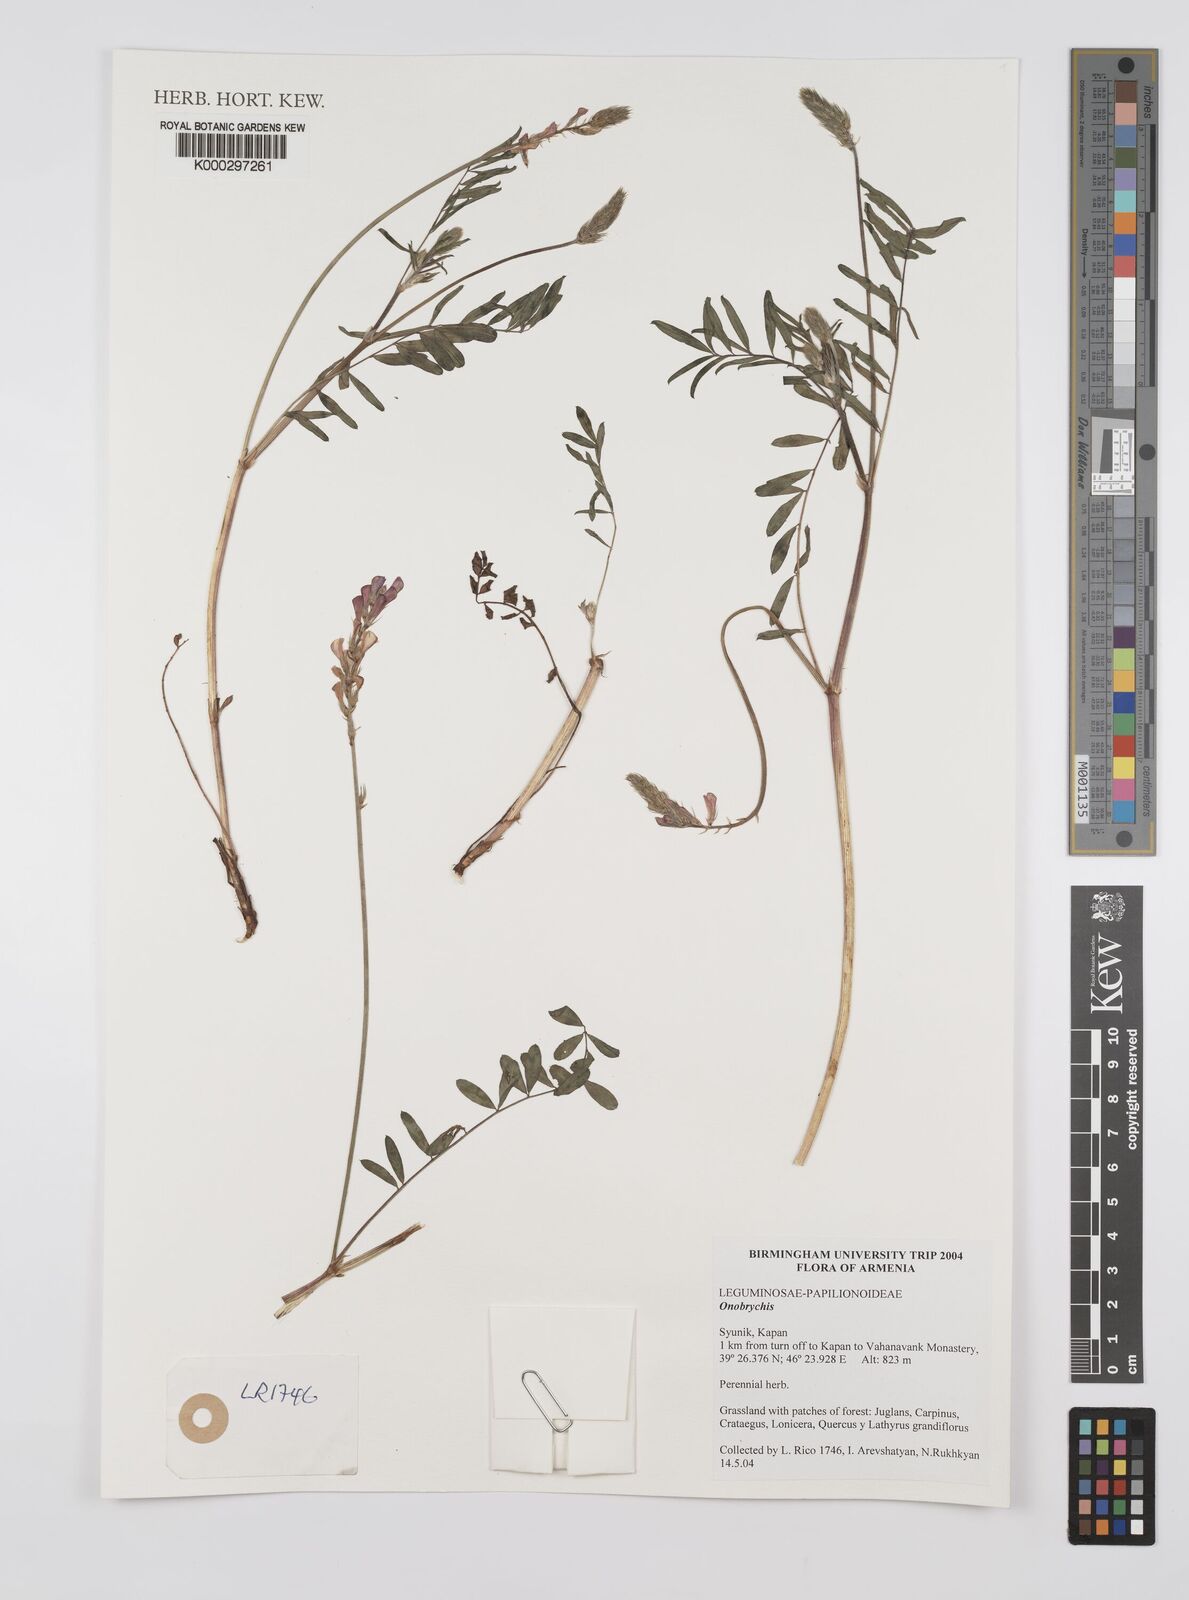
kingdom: Plantae
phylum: Tracheophyta
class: Magnoliopsida
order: Fabales
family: Fabaceae
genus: Onobrychis
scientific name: Onobrychis
